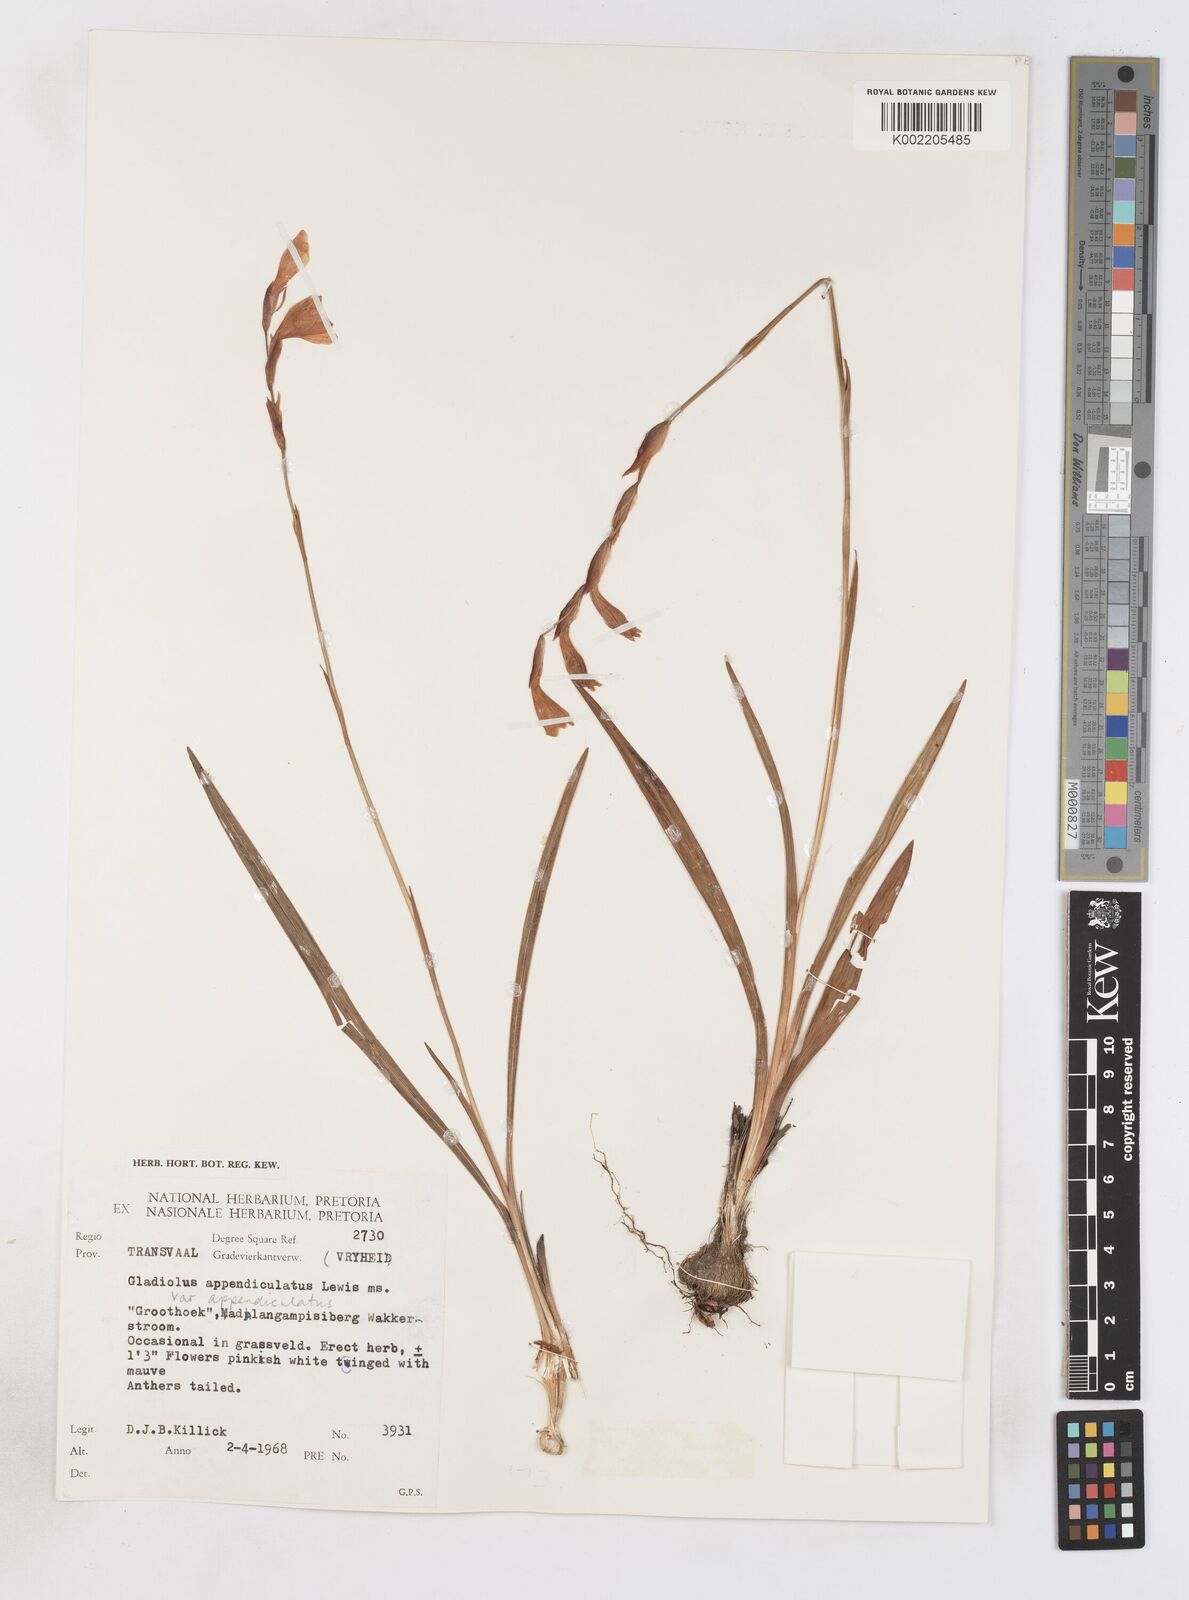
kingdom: Plantae
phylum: Tracheophyta
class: Liliopsida
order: Asparagales
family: Iridaceae
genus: Gladiolus
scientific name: Gladiolus appendiculatus
